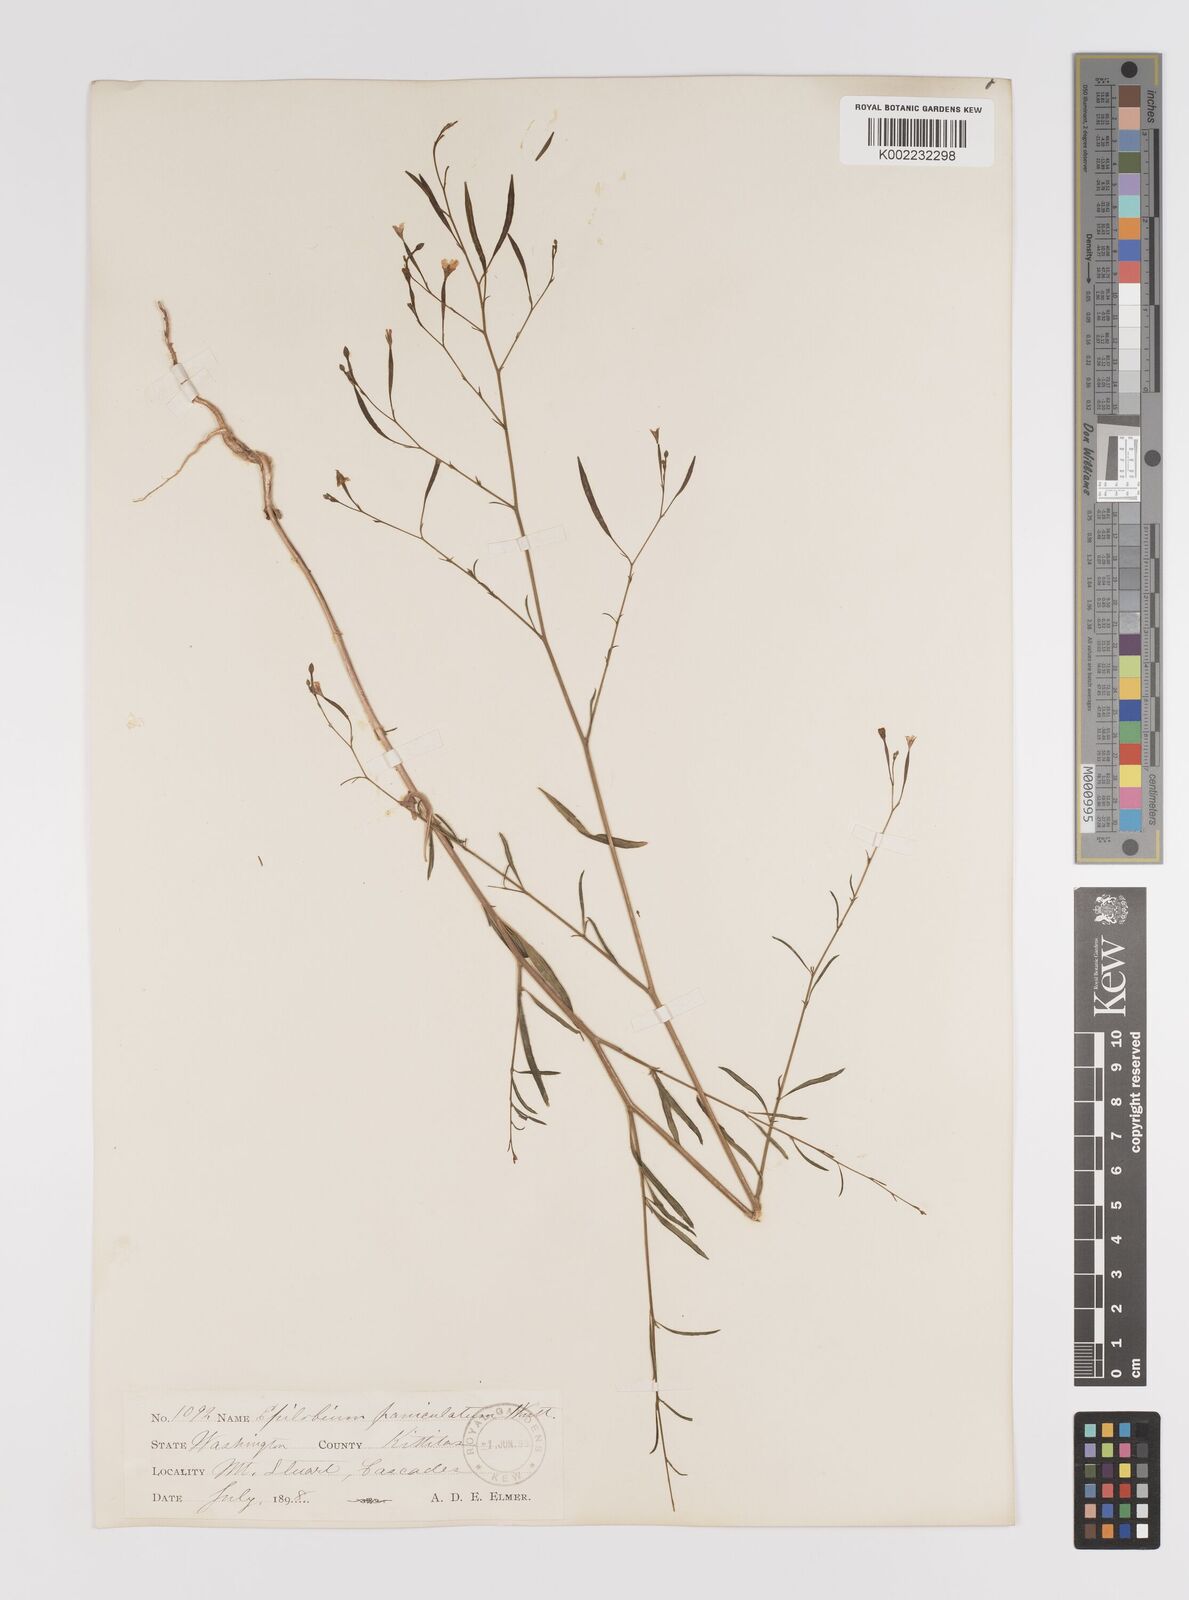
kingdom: Plantae
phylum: Tracheophyta
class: Magnoliopsida
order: Myrtales
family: Onagraceae
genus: Epilobium
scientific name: Epilobium
